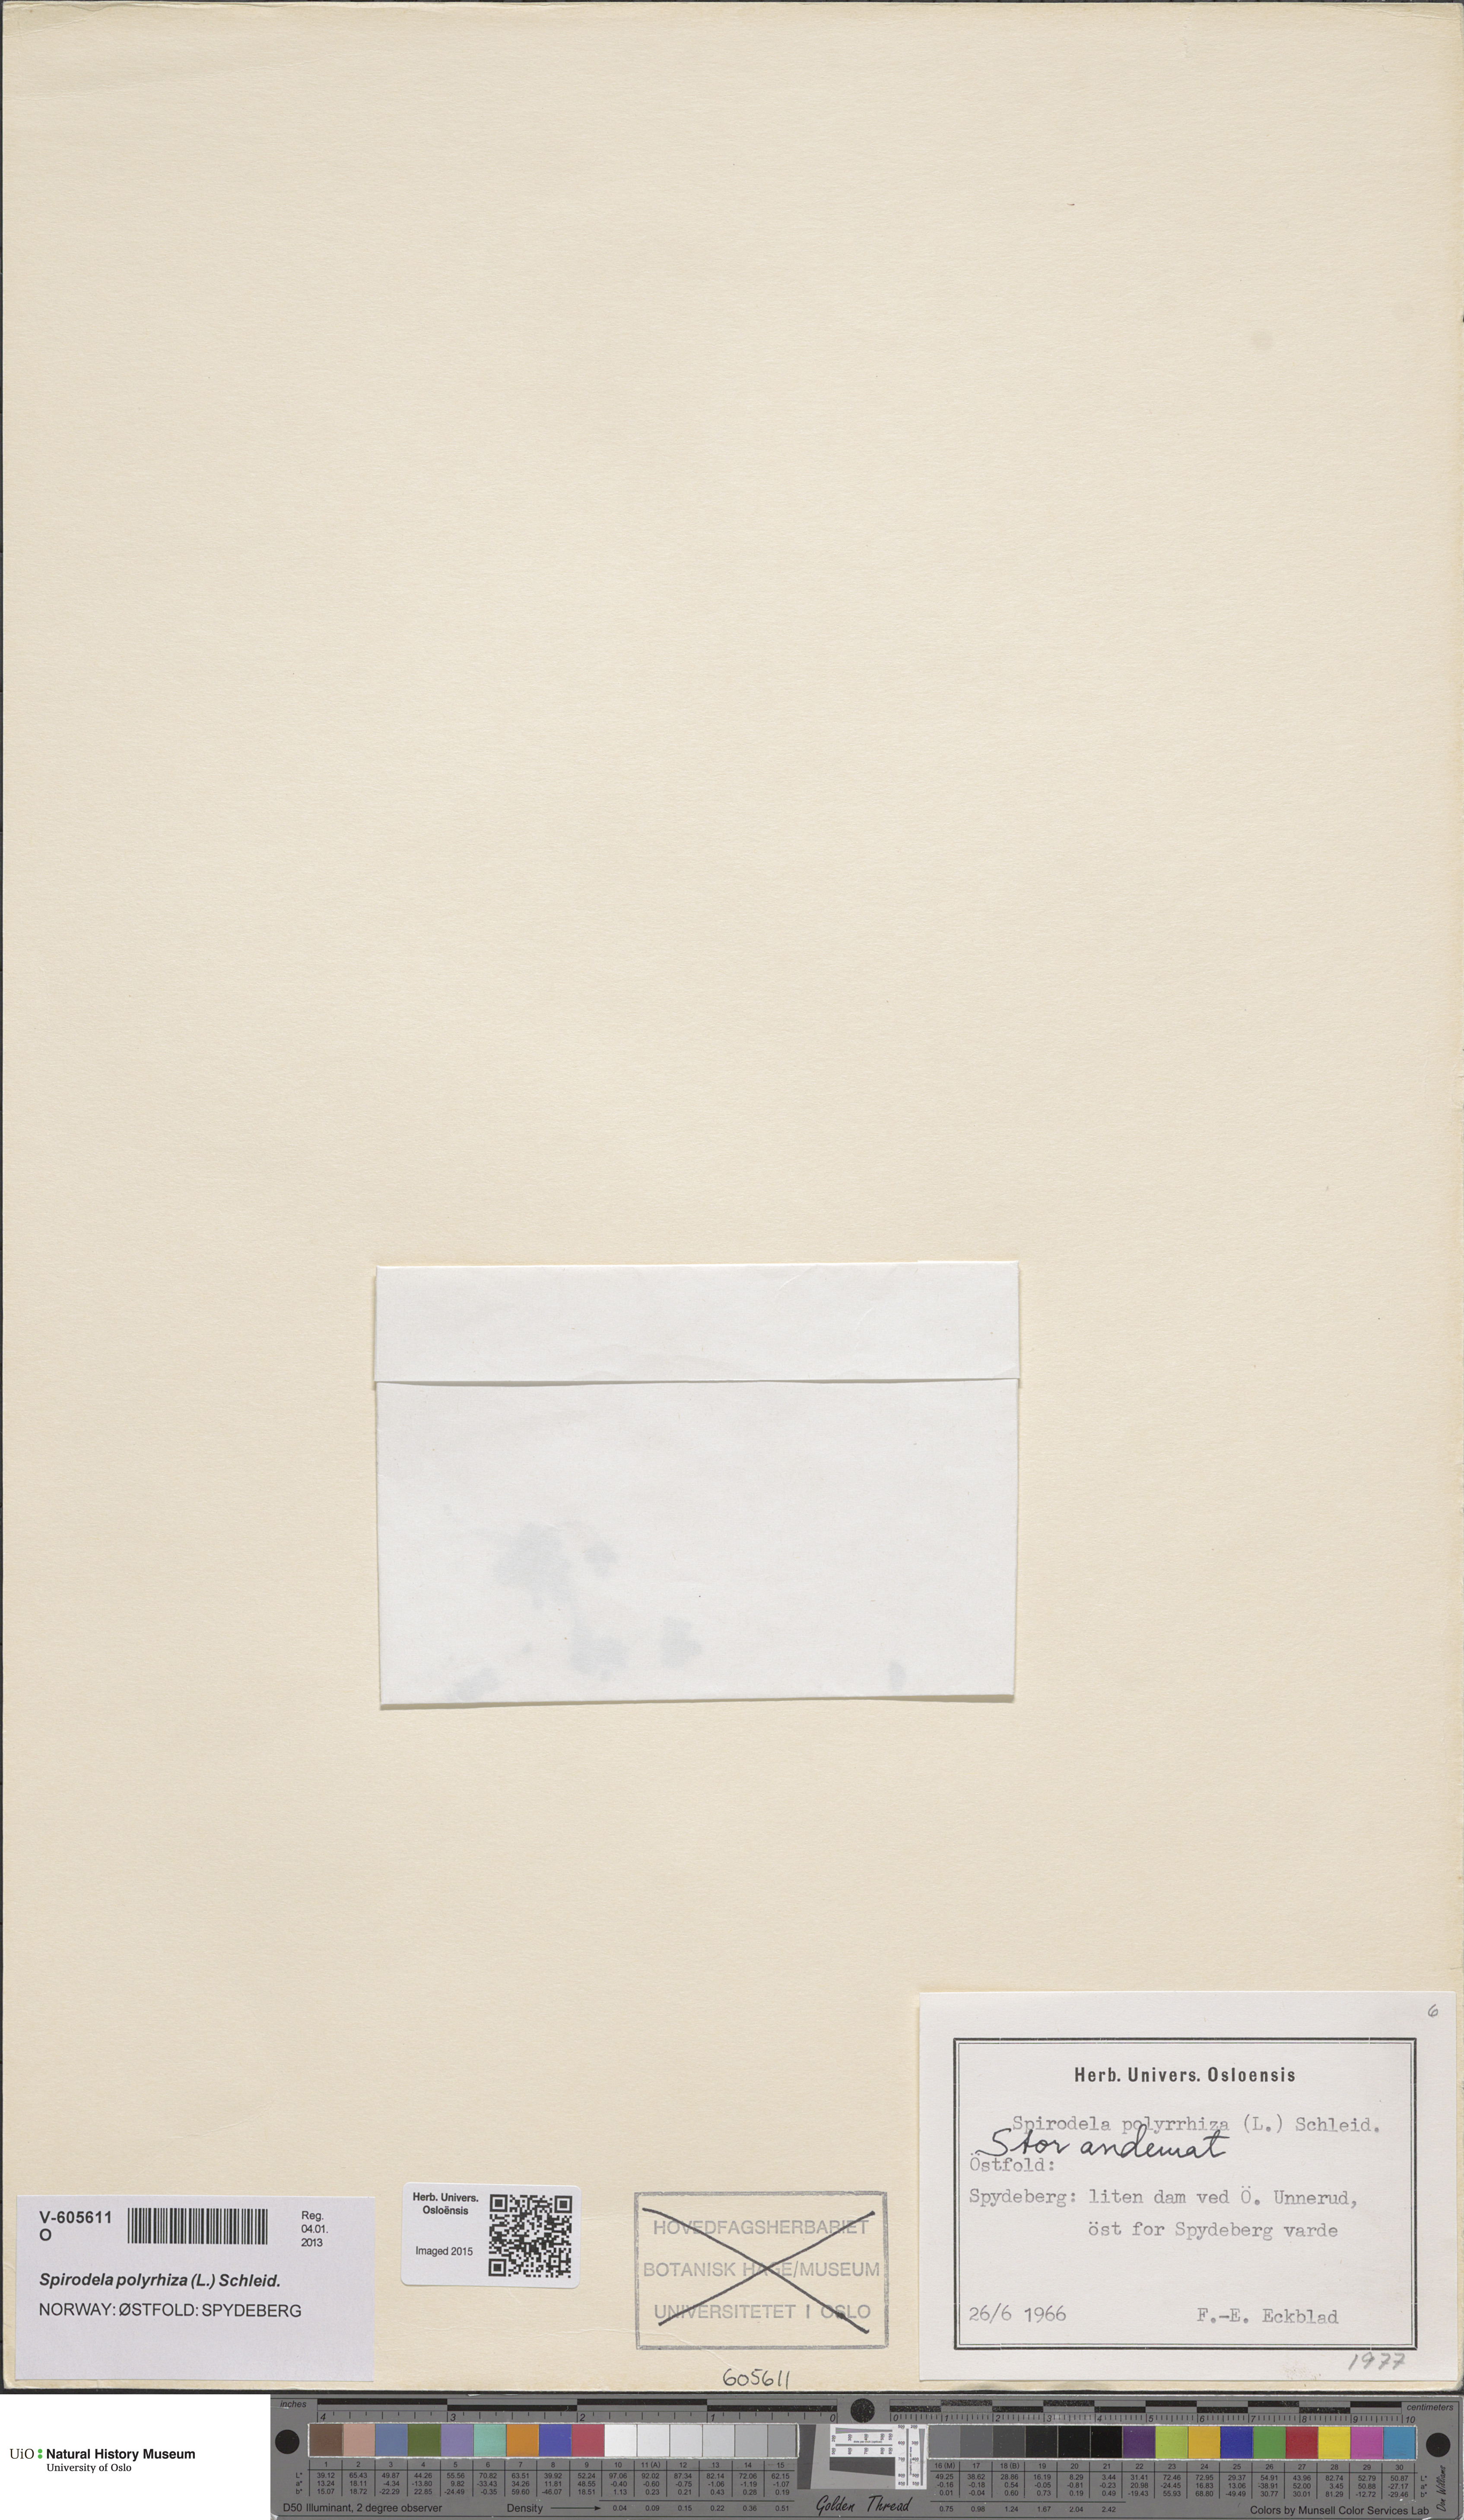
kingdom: Plantae
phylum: Tracheophyta
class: Liliopsida
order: Alismatales
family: Araceae
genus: Spirodela
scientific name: Spirodela polyrhiza
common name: Great duckweed
